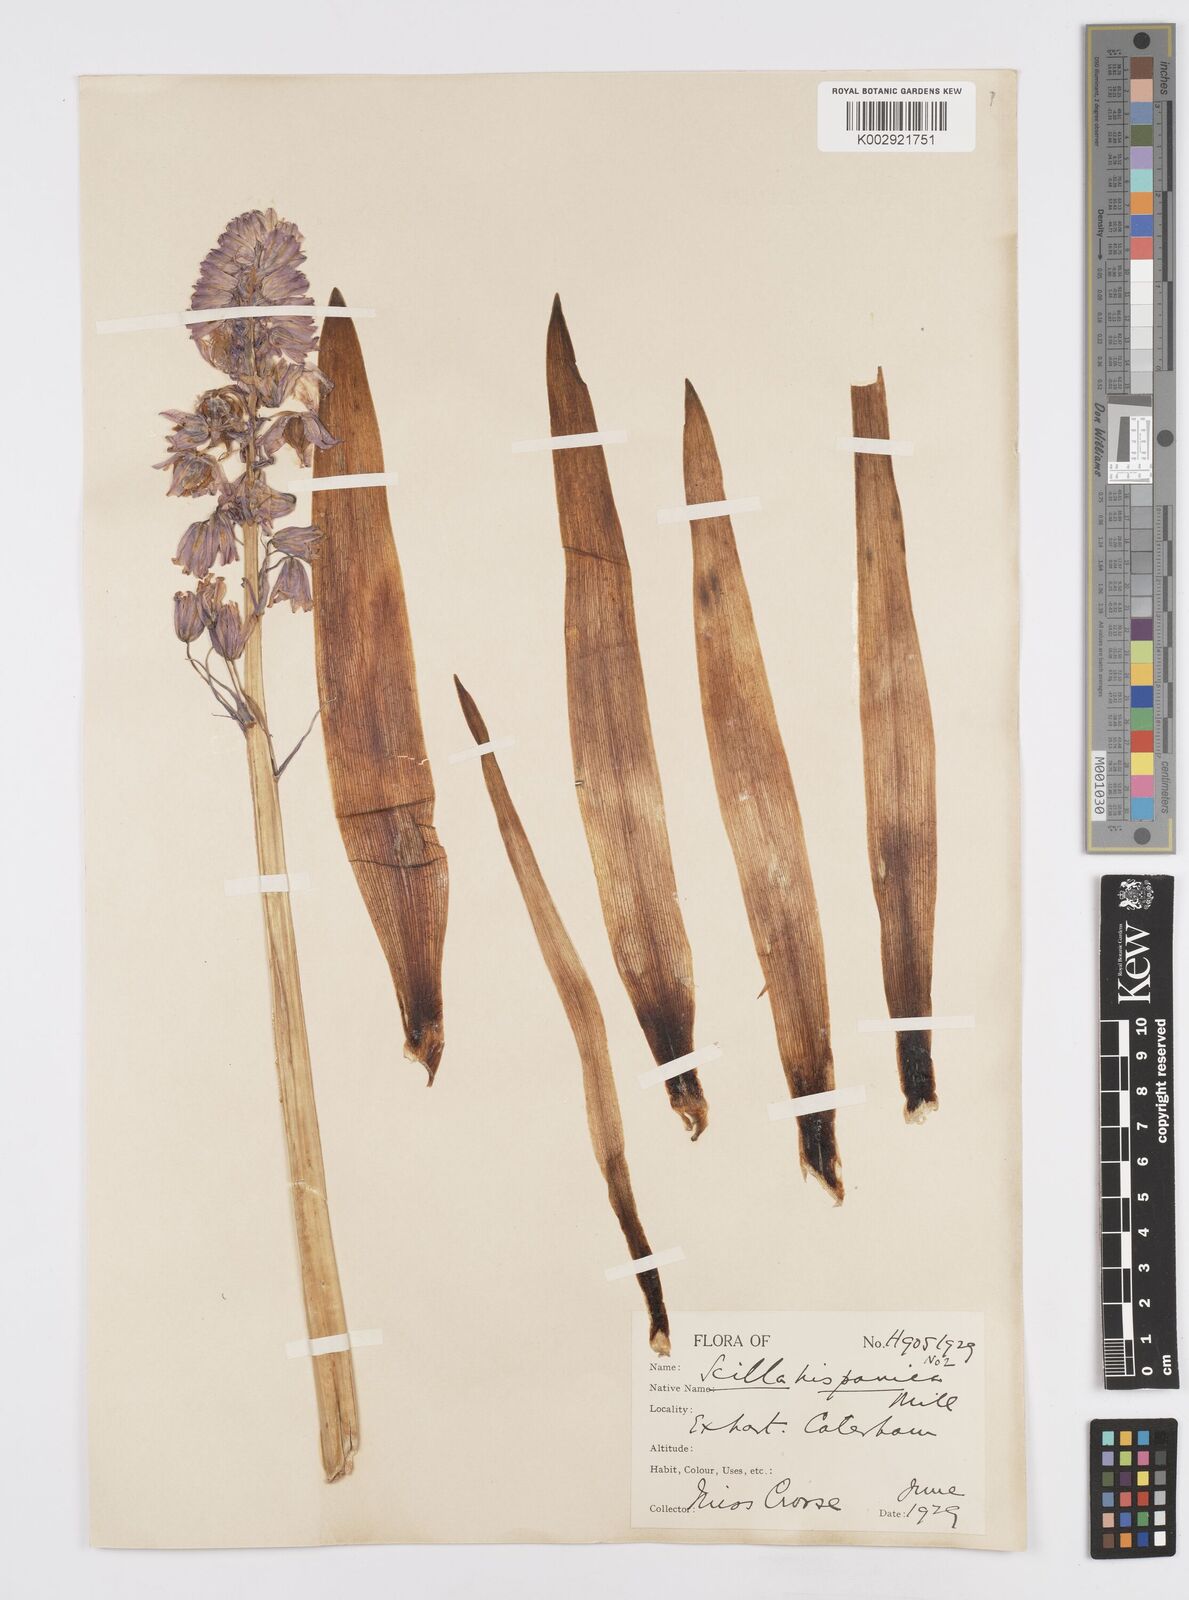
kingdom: Plantae
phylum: Tracheophyta
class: Liliopsida
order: Asparagales
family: Asparagaceae
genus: Hyacinthoides
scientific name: Hyacinthoides hispanica
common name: Spanish bluebell
